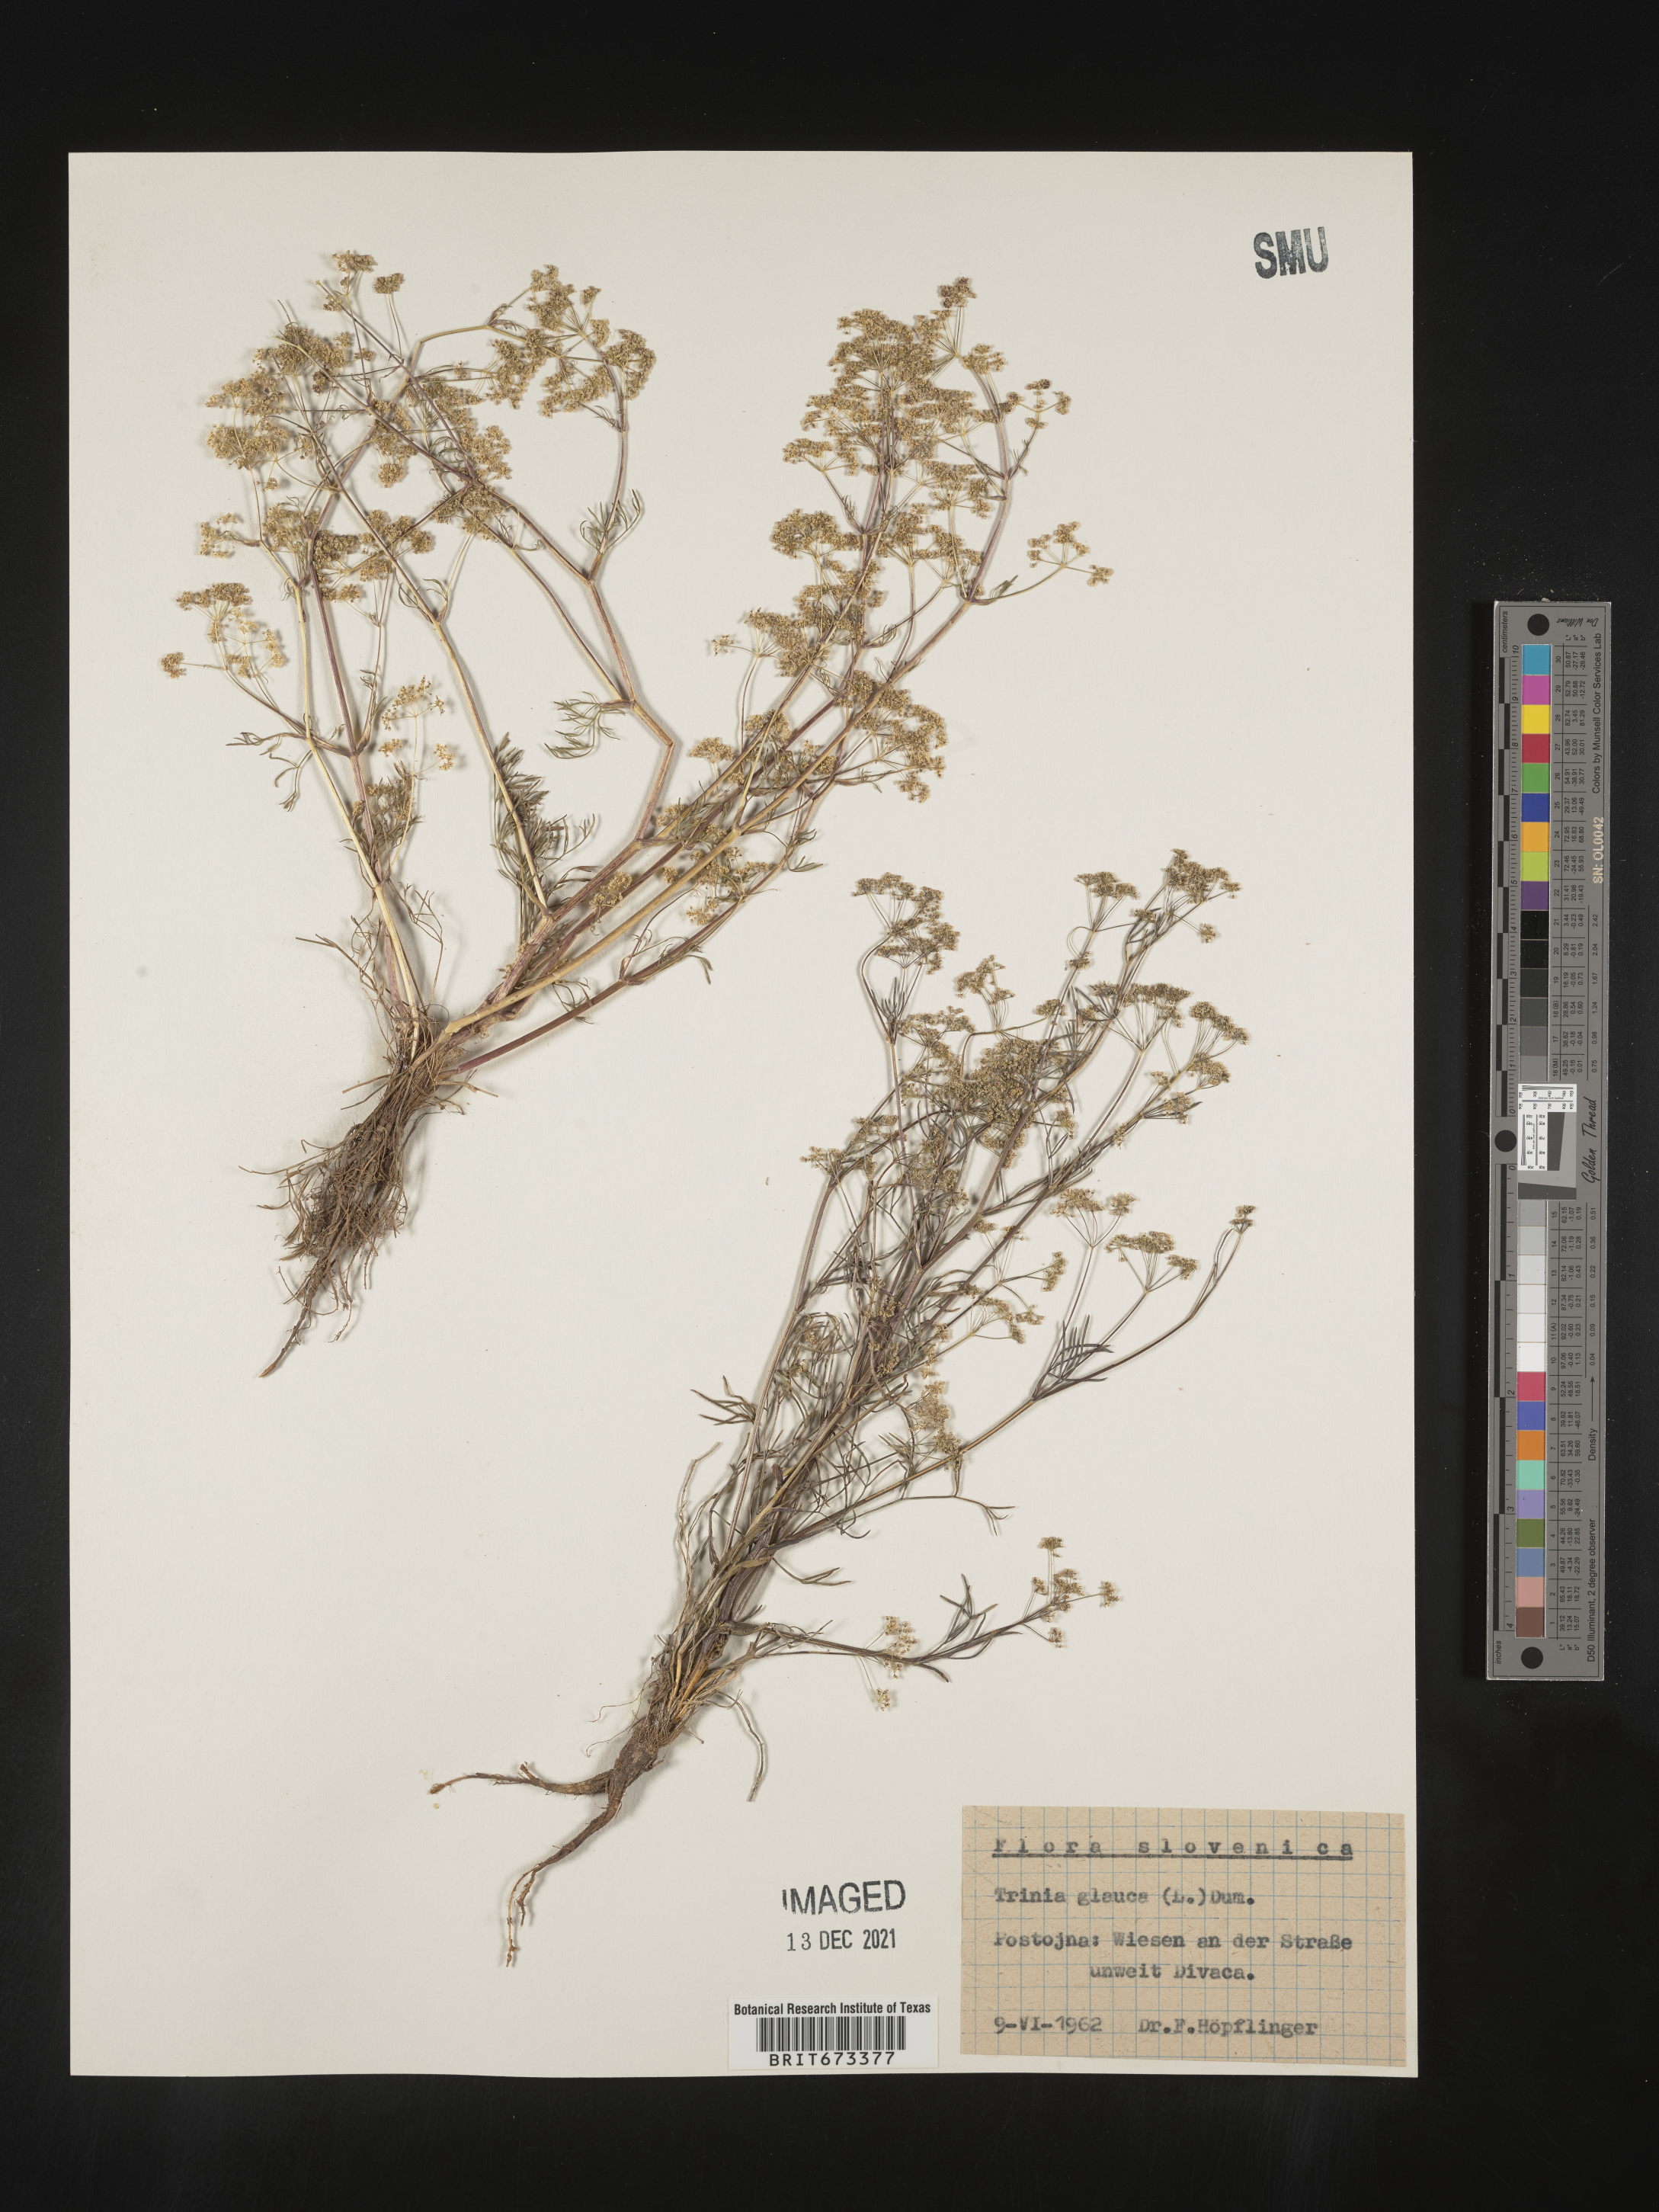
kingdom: Plantae
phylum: Tracheophyta
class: Magnoliopsida
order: Apiales
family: Apiaceae
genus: Trinia
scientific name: Trinia
